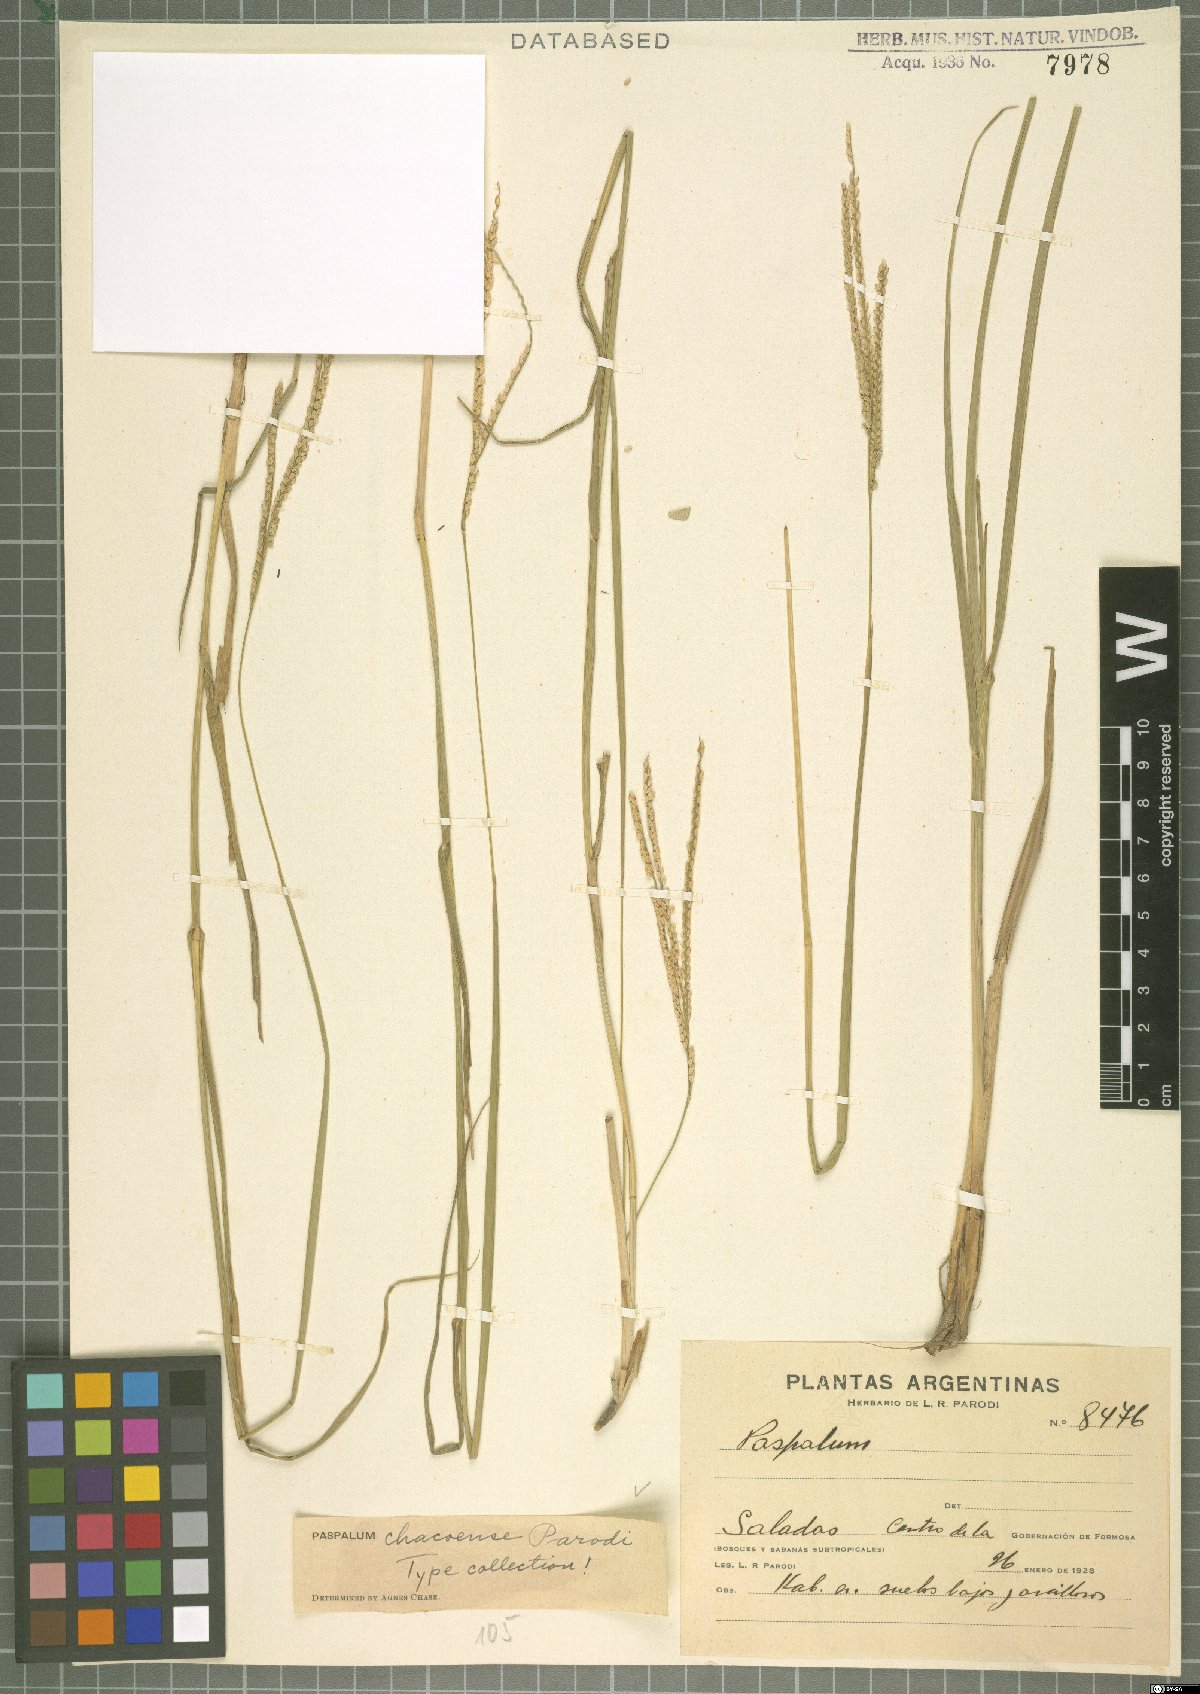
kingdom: Plantae
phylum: Tracheophyta
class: Liliopsida
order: Poales
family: Poaceae
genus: Paspalum
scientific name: Paspalum chacoense
